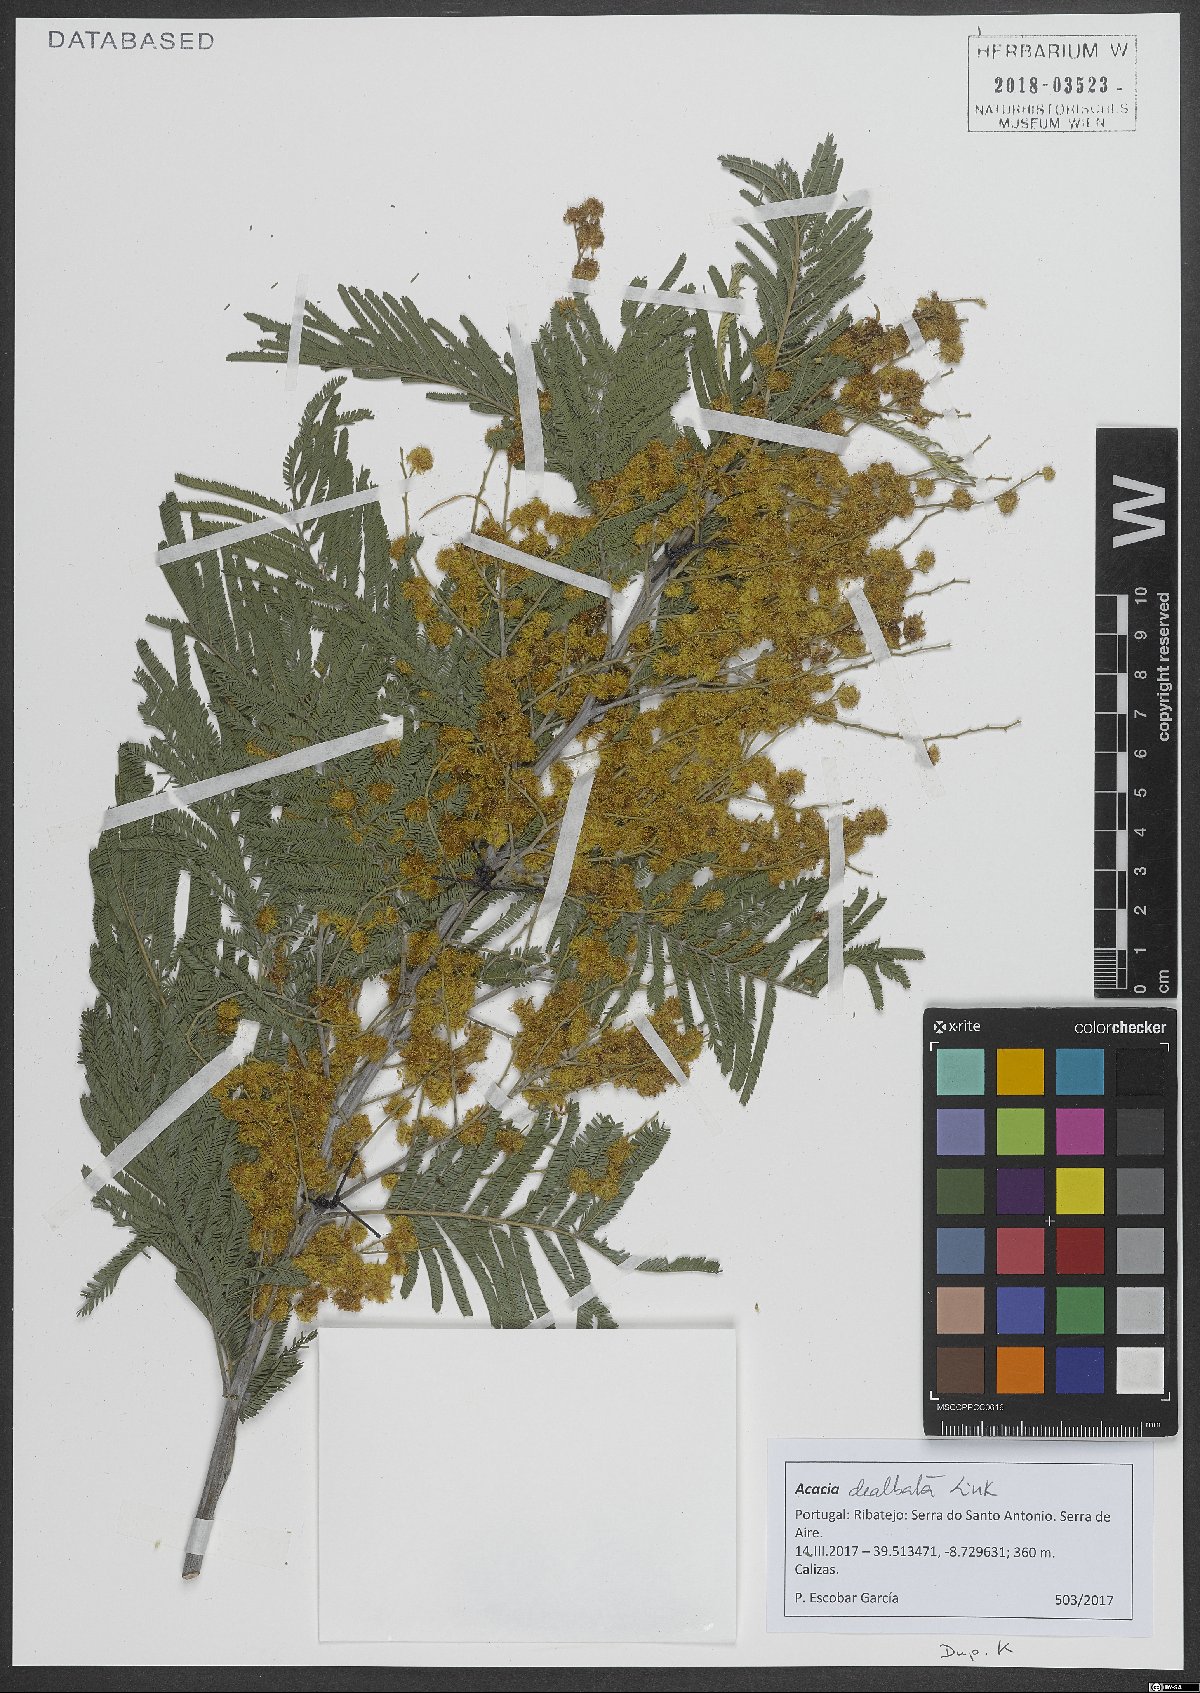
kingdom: Plantae
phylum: Tracheophyta
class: Magnoliopsida
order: Fabales
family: Fabaceae
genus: Acacia
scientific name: Acacia dealbata
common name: Silver wattle
